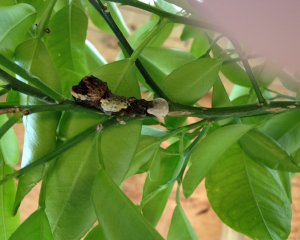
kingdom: Animalia
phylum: Arthropoda
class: Insecta
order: Lepidoptera
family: Papilionidae
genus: Papilio
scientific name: Papilio cresphontes
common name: Eastern Giant Swallowtail
